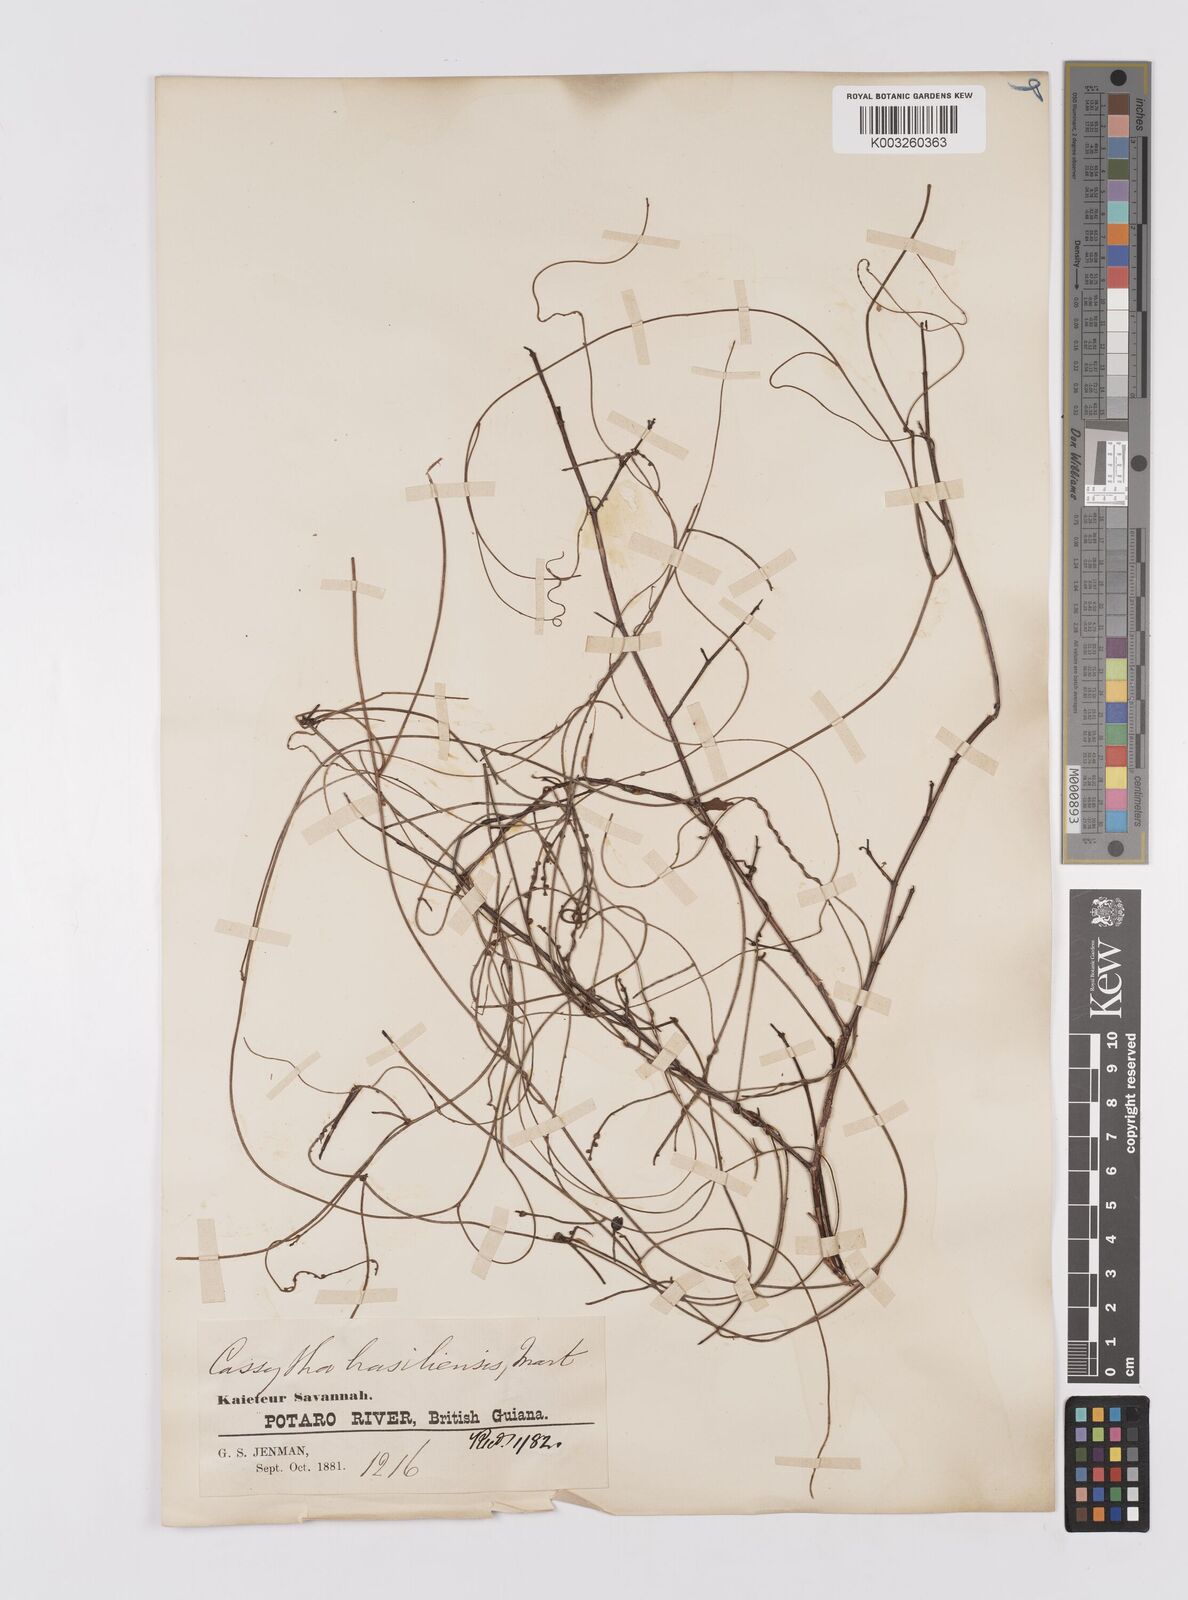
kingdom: Plantae
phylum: Tracheophyta
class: Magnoliopsida
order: Laurales
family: Lauraceae
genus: Cassytha
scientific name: Cassytha filiformis
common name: Dodder-laurel
